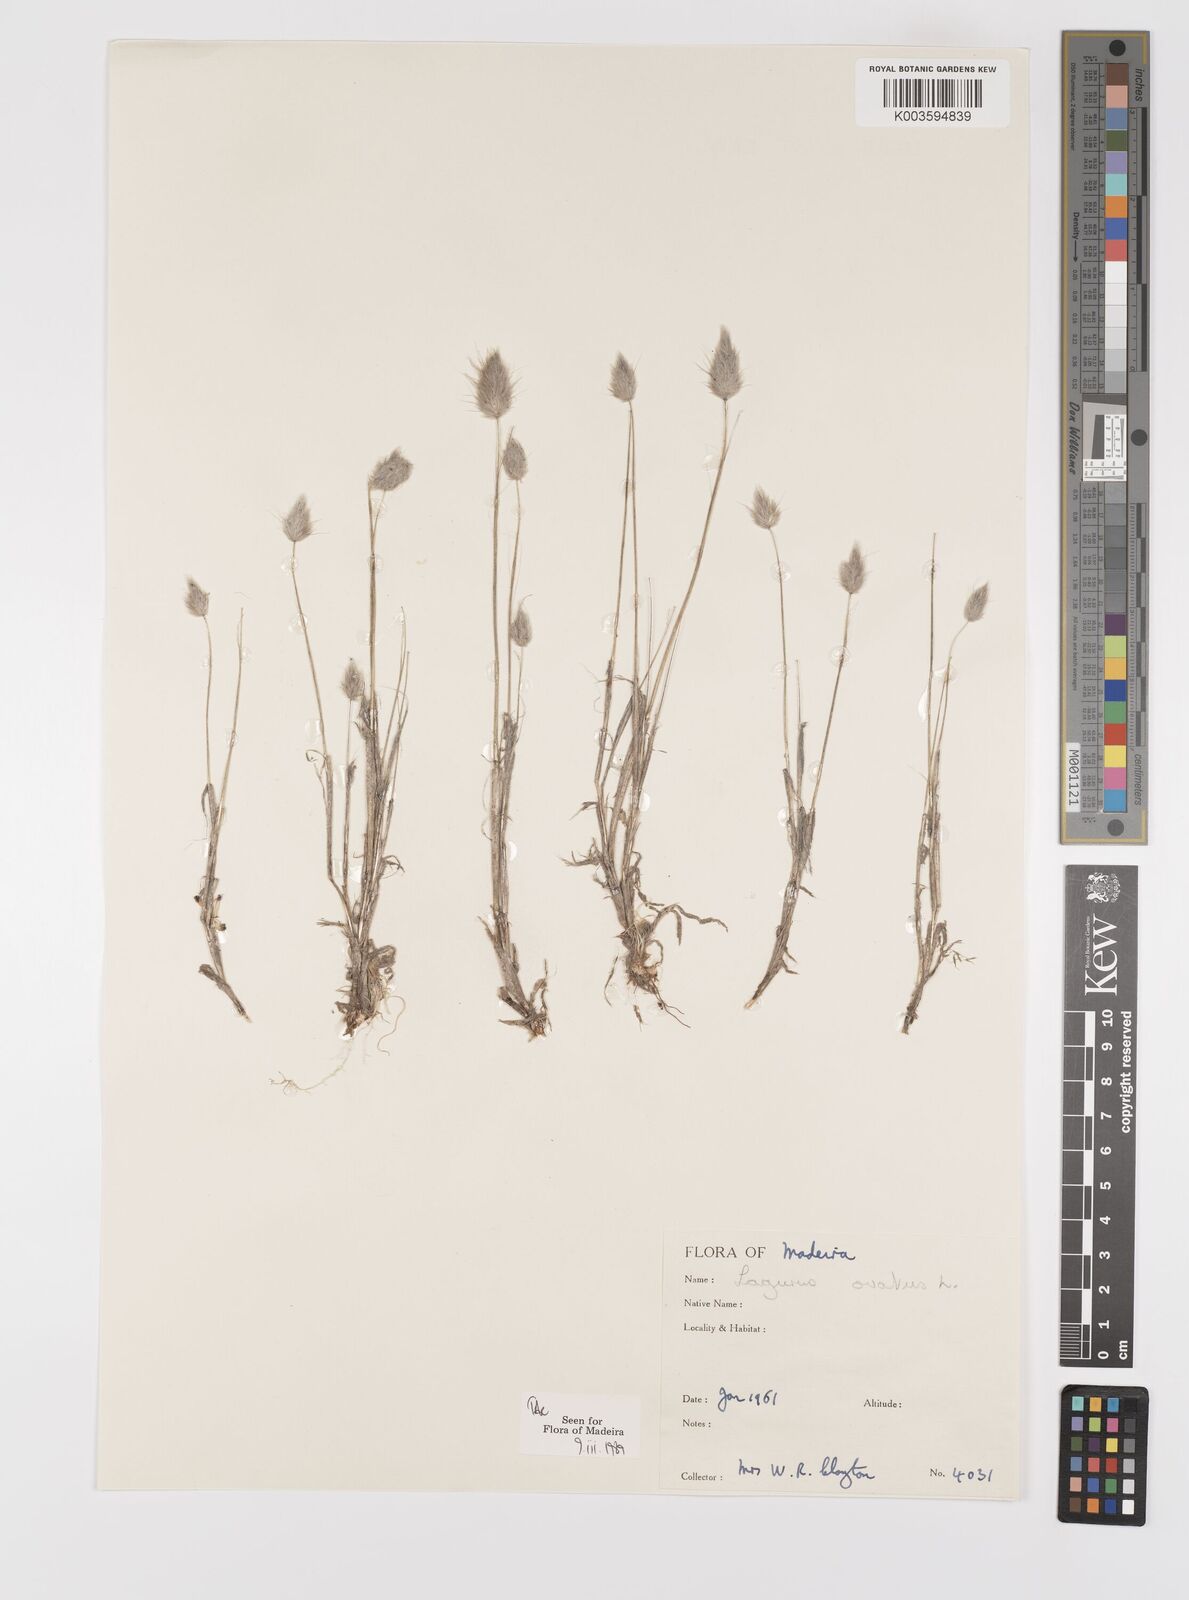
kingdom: Plantae
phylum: Tracheophyta
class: Liliopsida
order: Poales
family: Poaceae
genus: Lagurus
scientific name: Lagurus ovatus
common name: Hare's-tail
